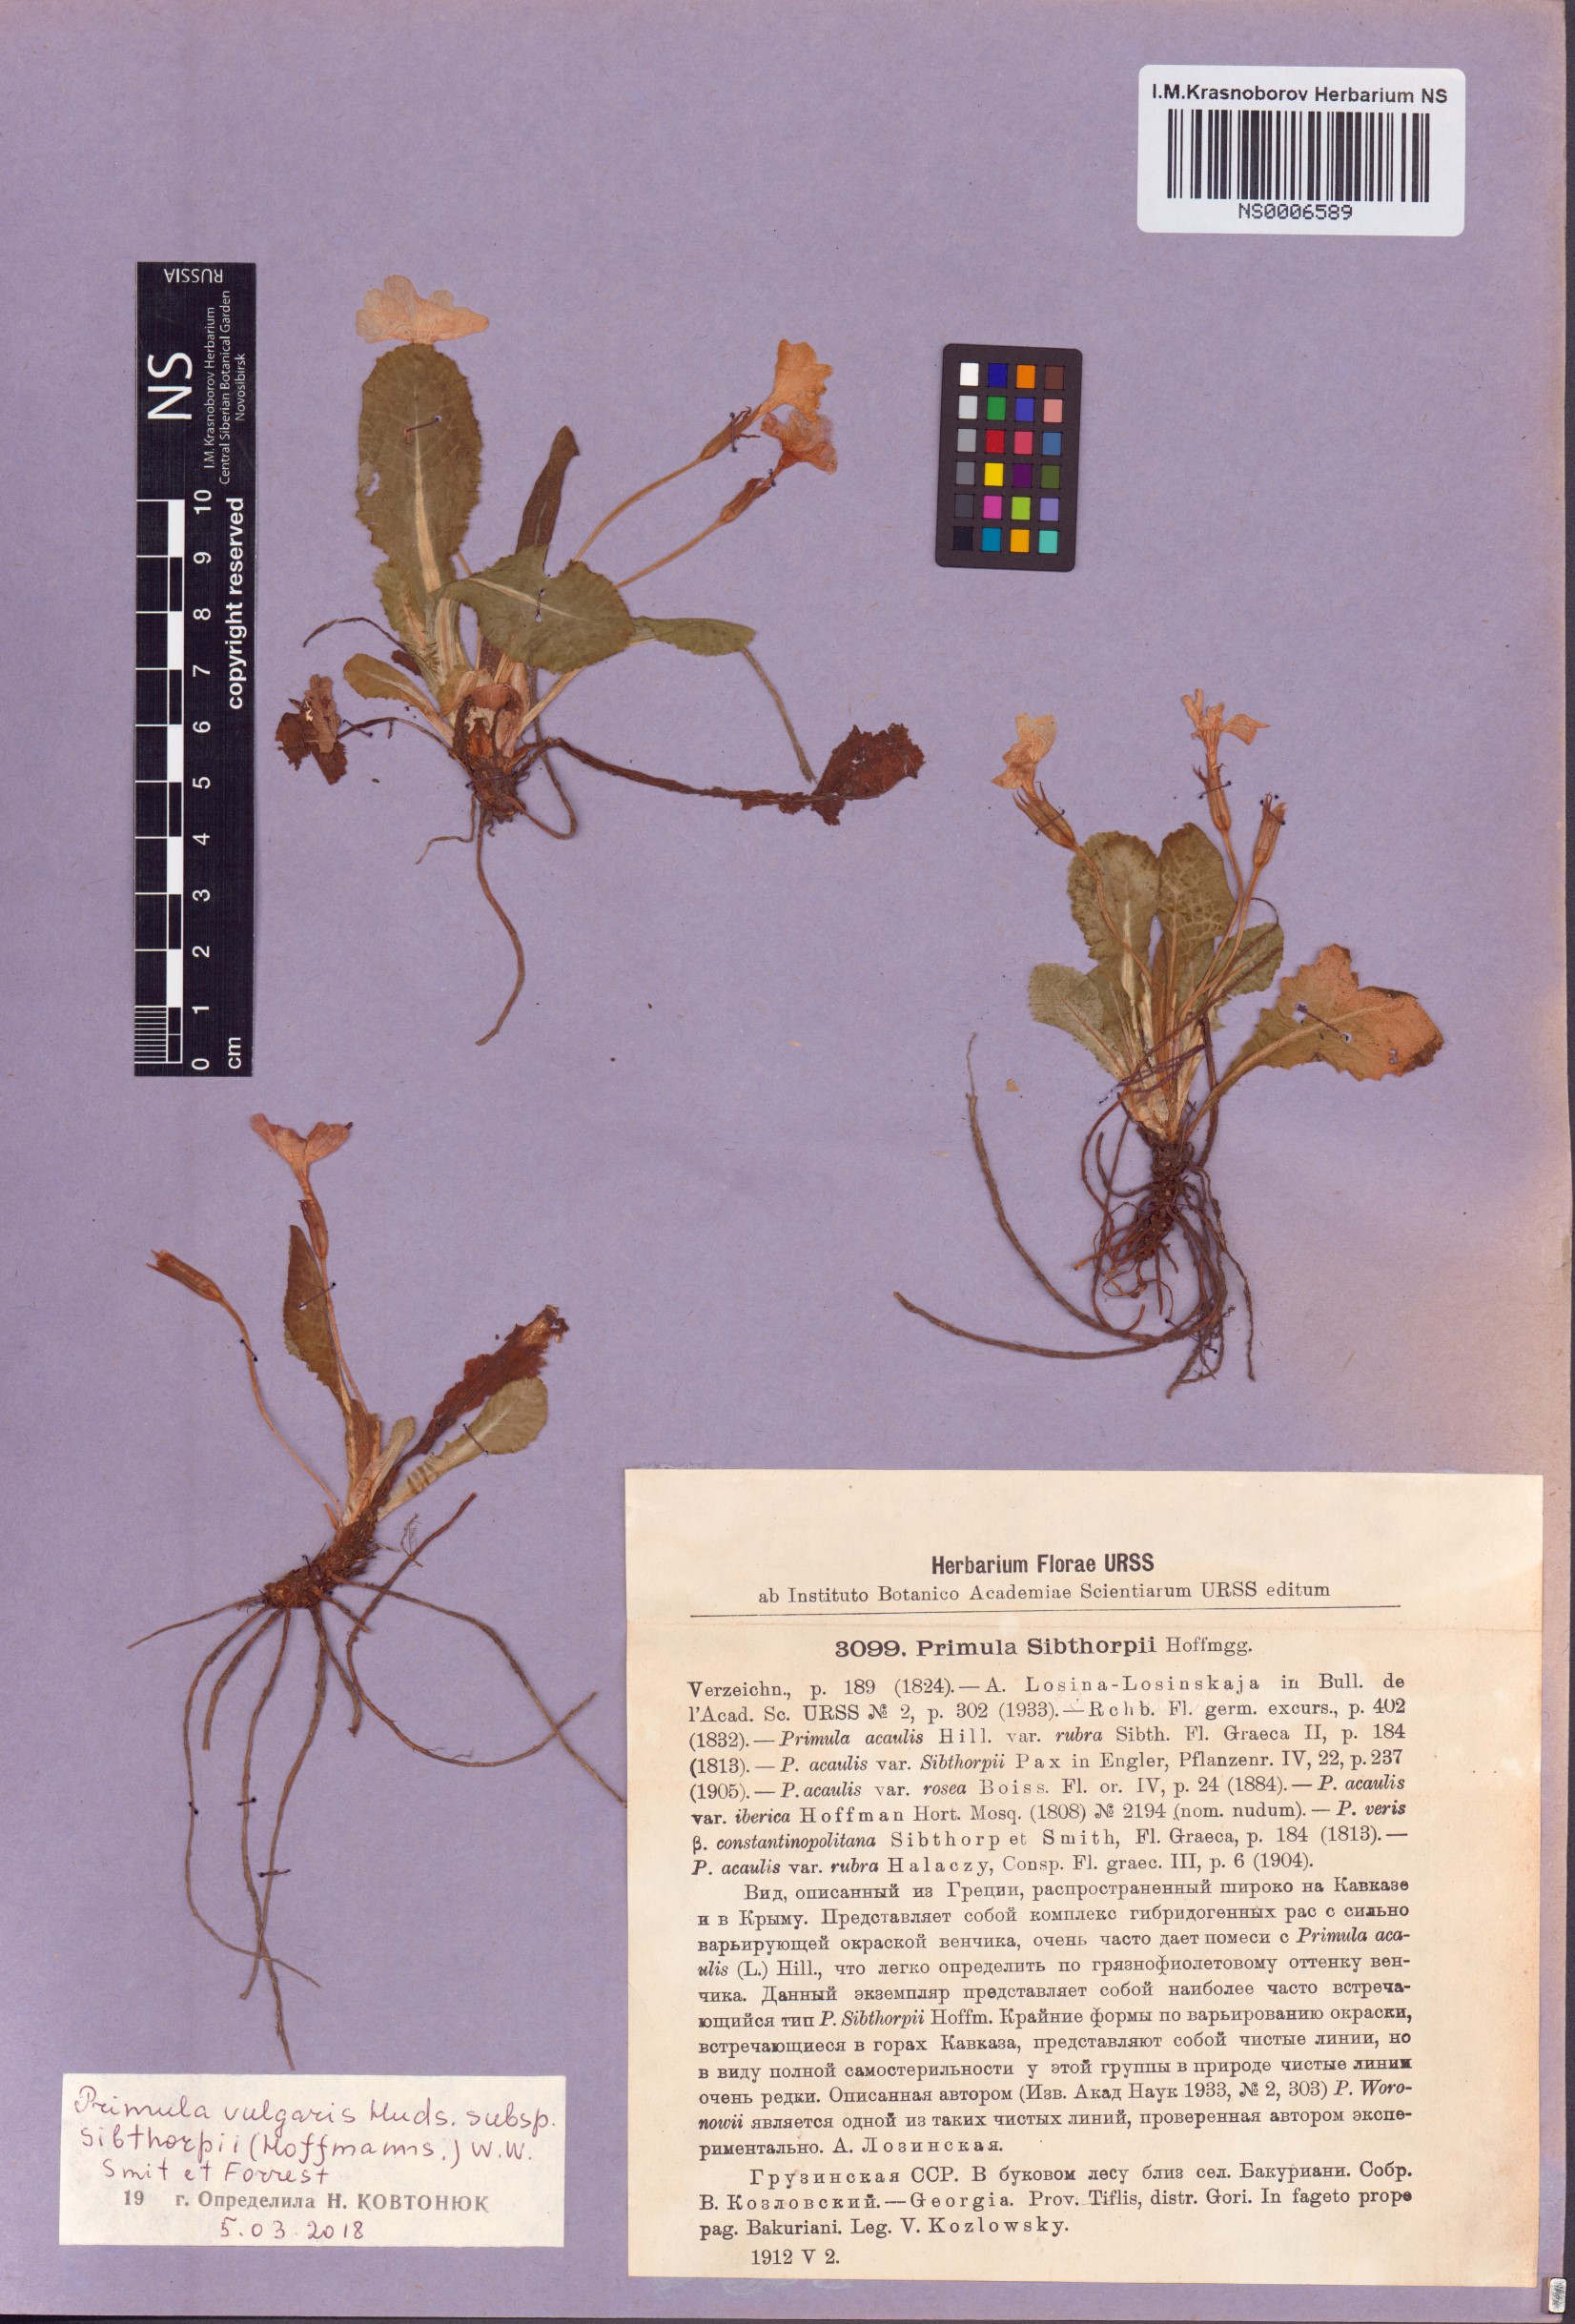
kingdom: Plantae
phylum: Tracheophyta
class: Magnoliopsida
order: Ericales
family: Primulaceae
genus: Primula
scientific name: Primula vulgaris
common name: Primrose
